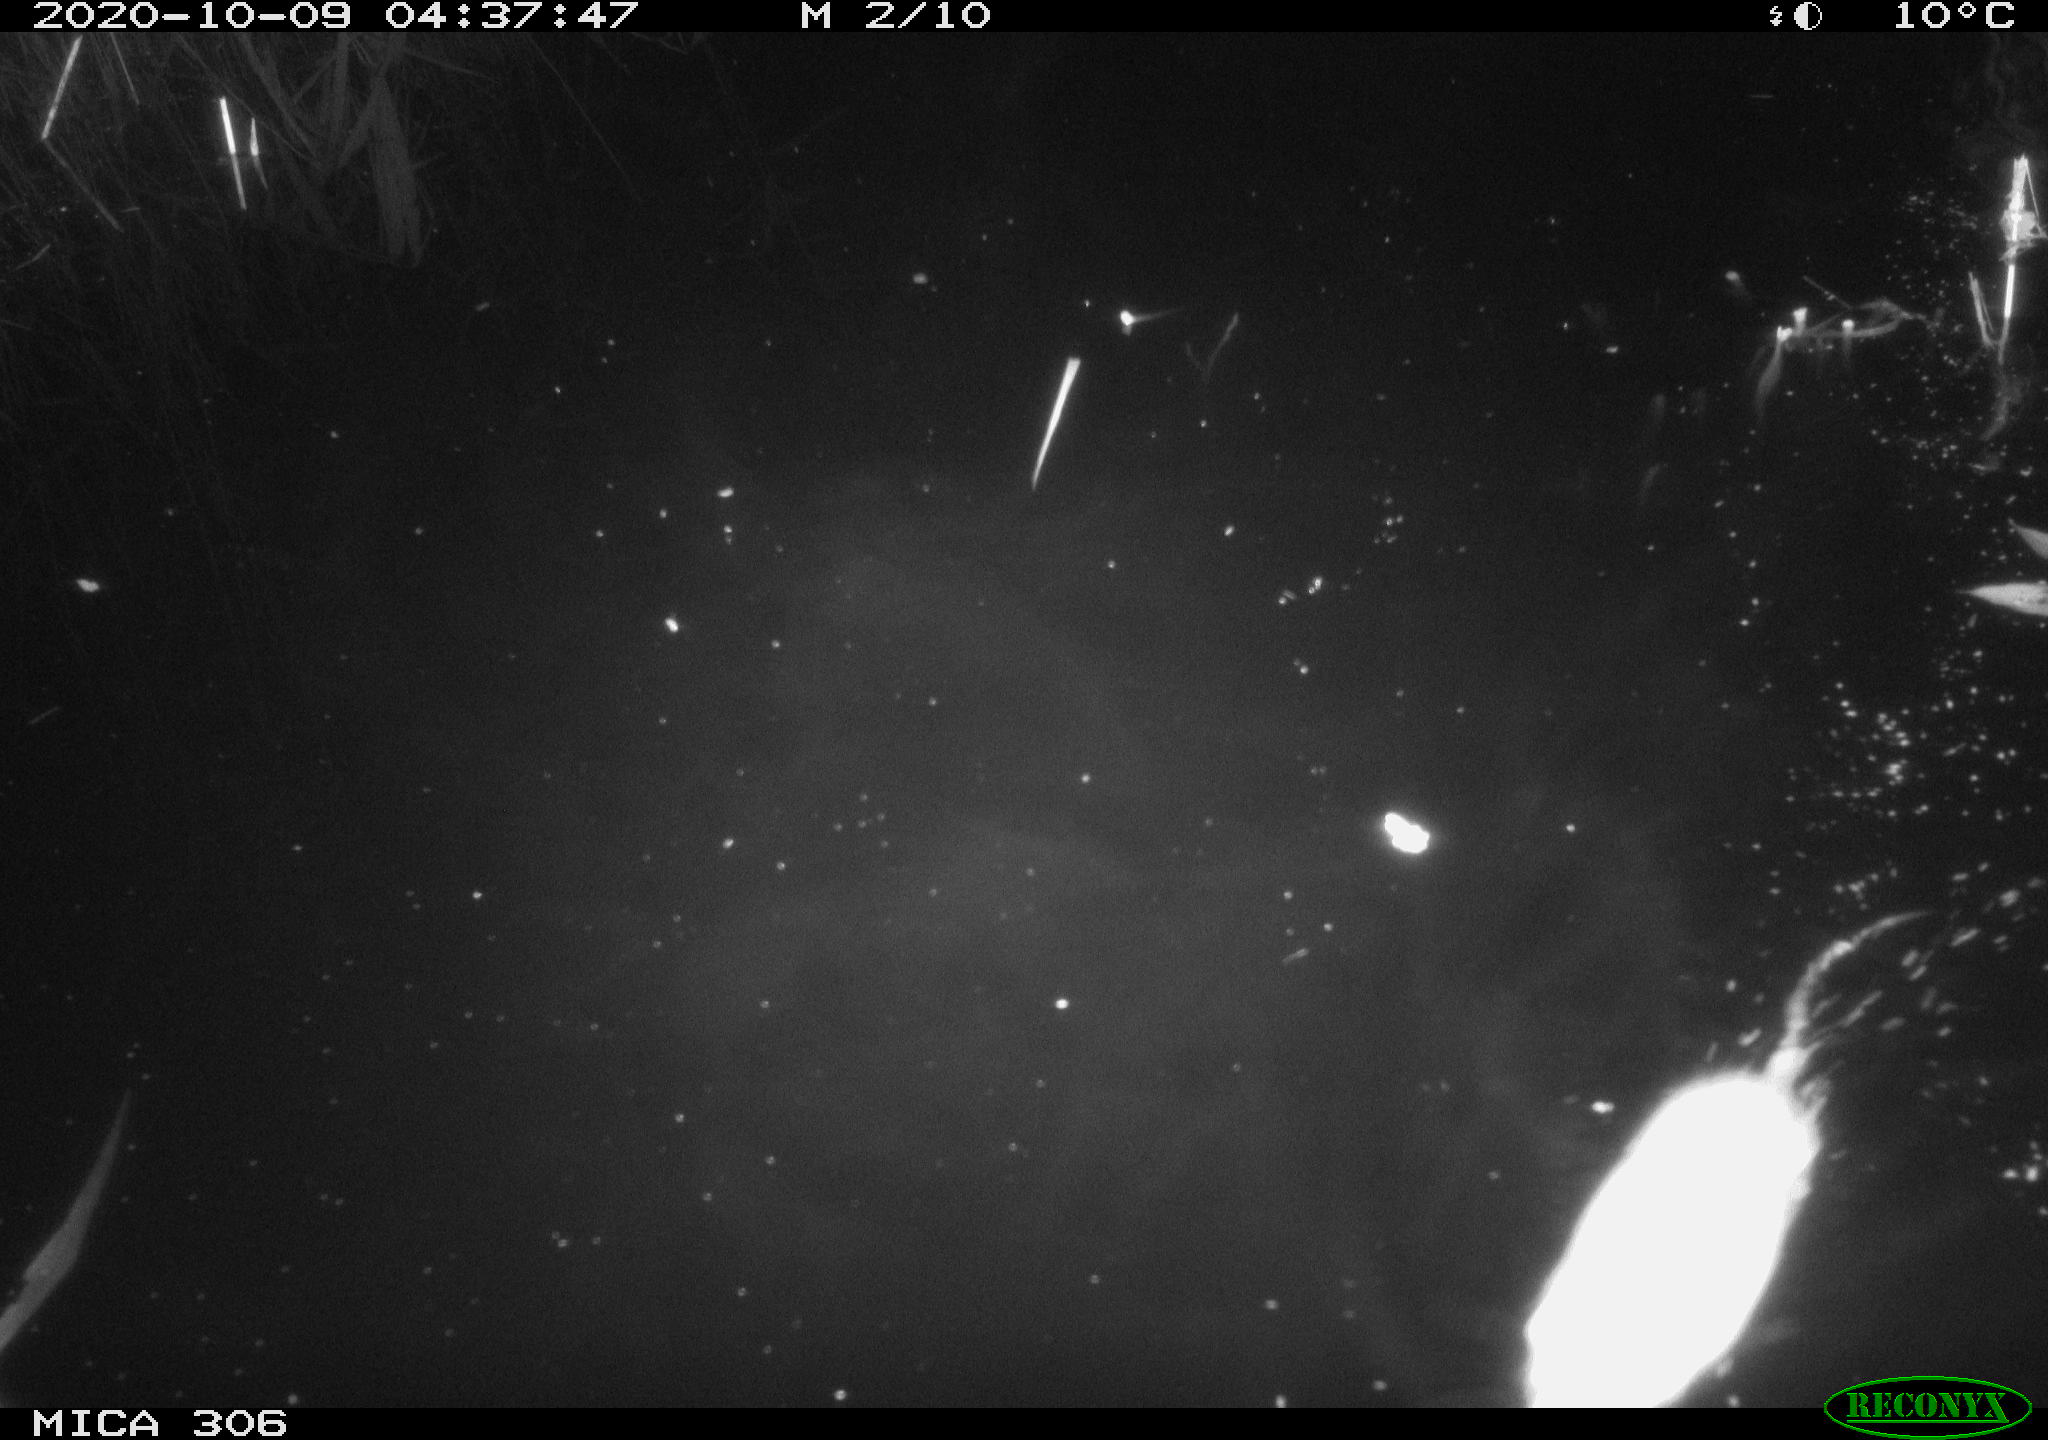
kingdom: Animalia
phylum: Chordata
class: Mammalia
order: Rodentia
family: Cricetidae
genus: Ondatra
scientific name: Ondatra zibethicus
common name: Muskrat
